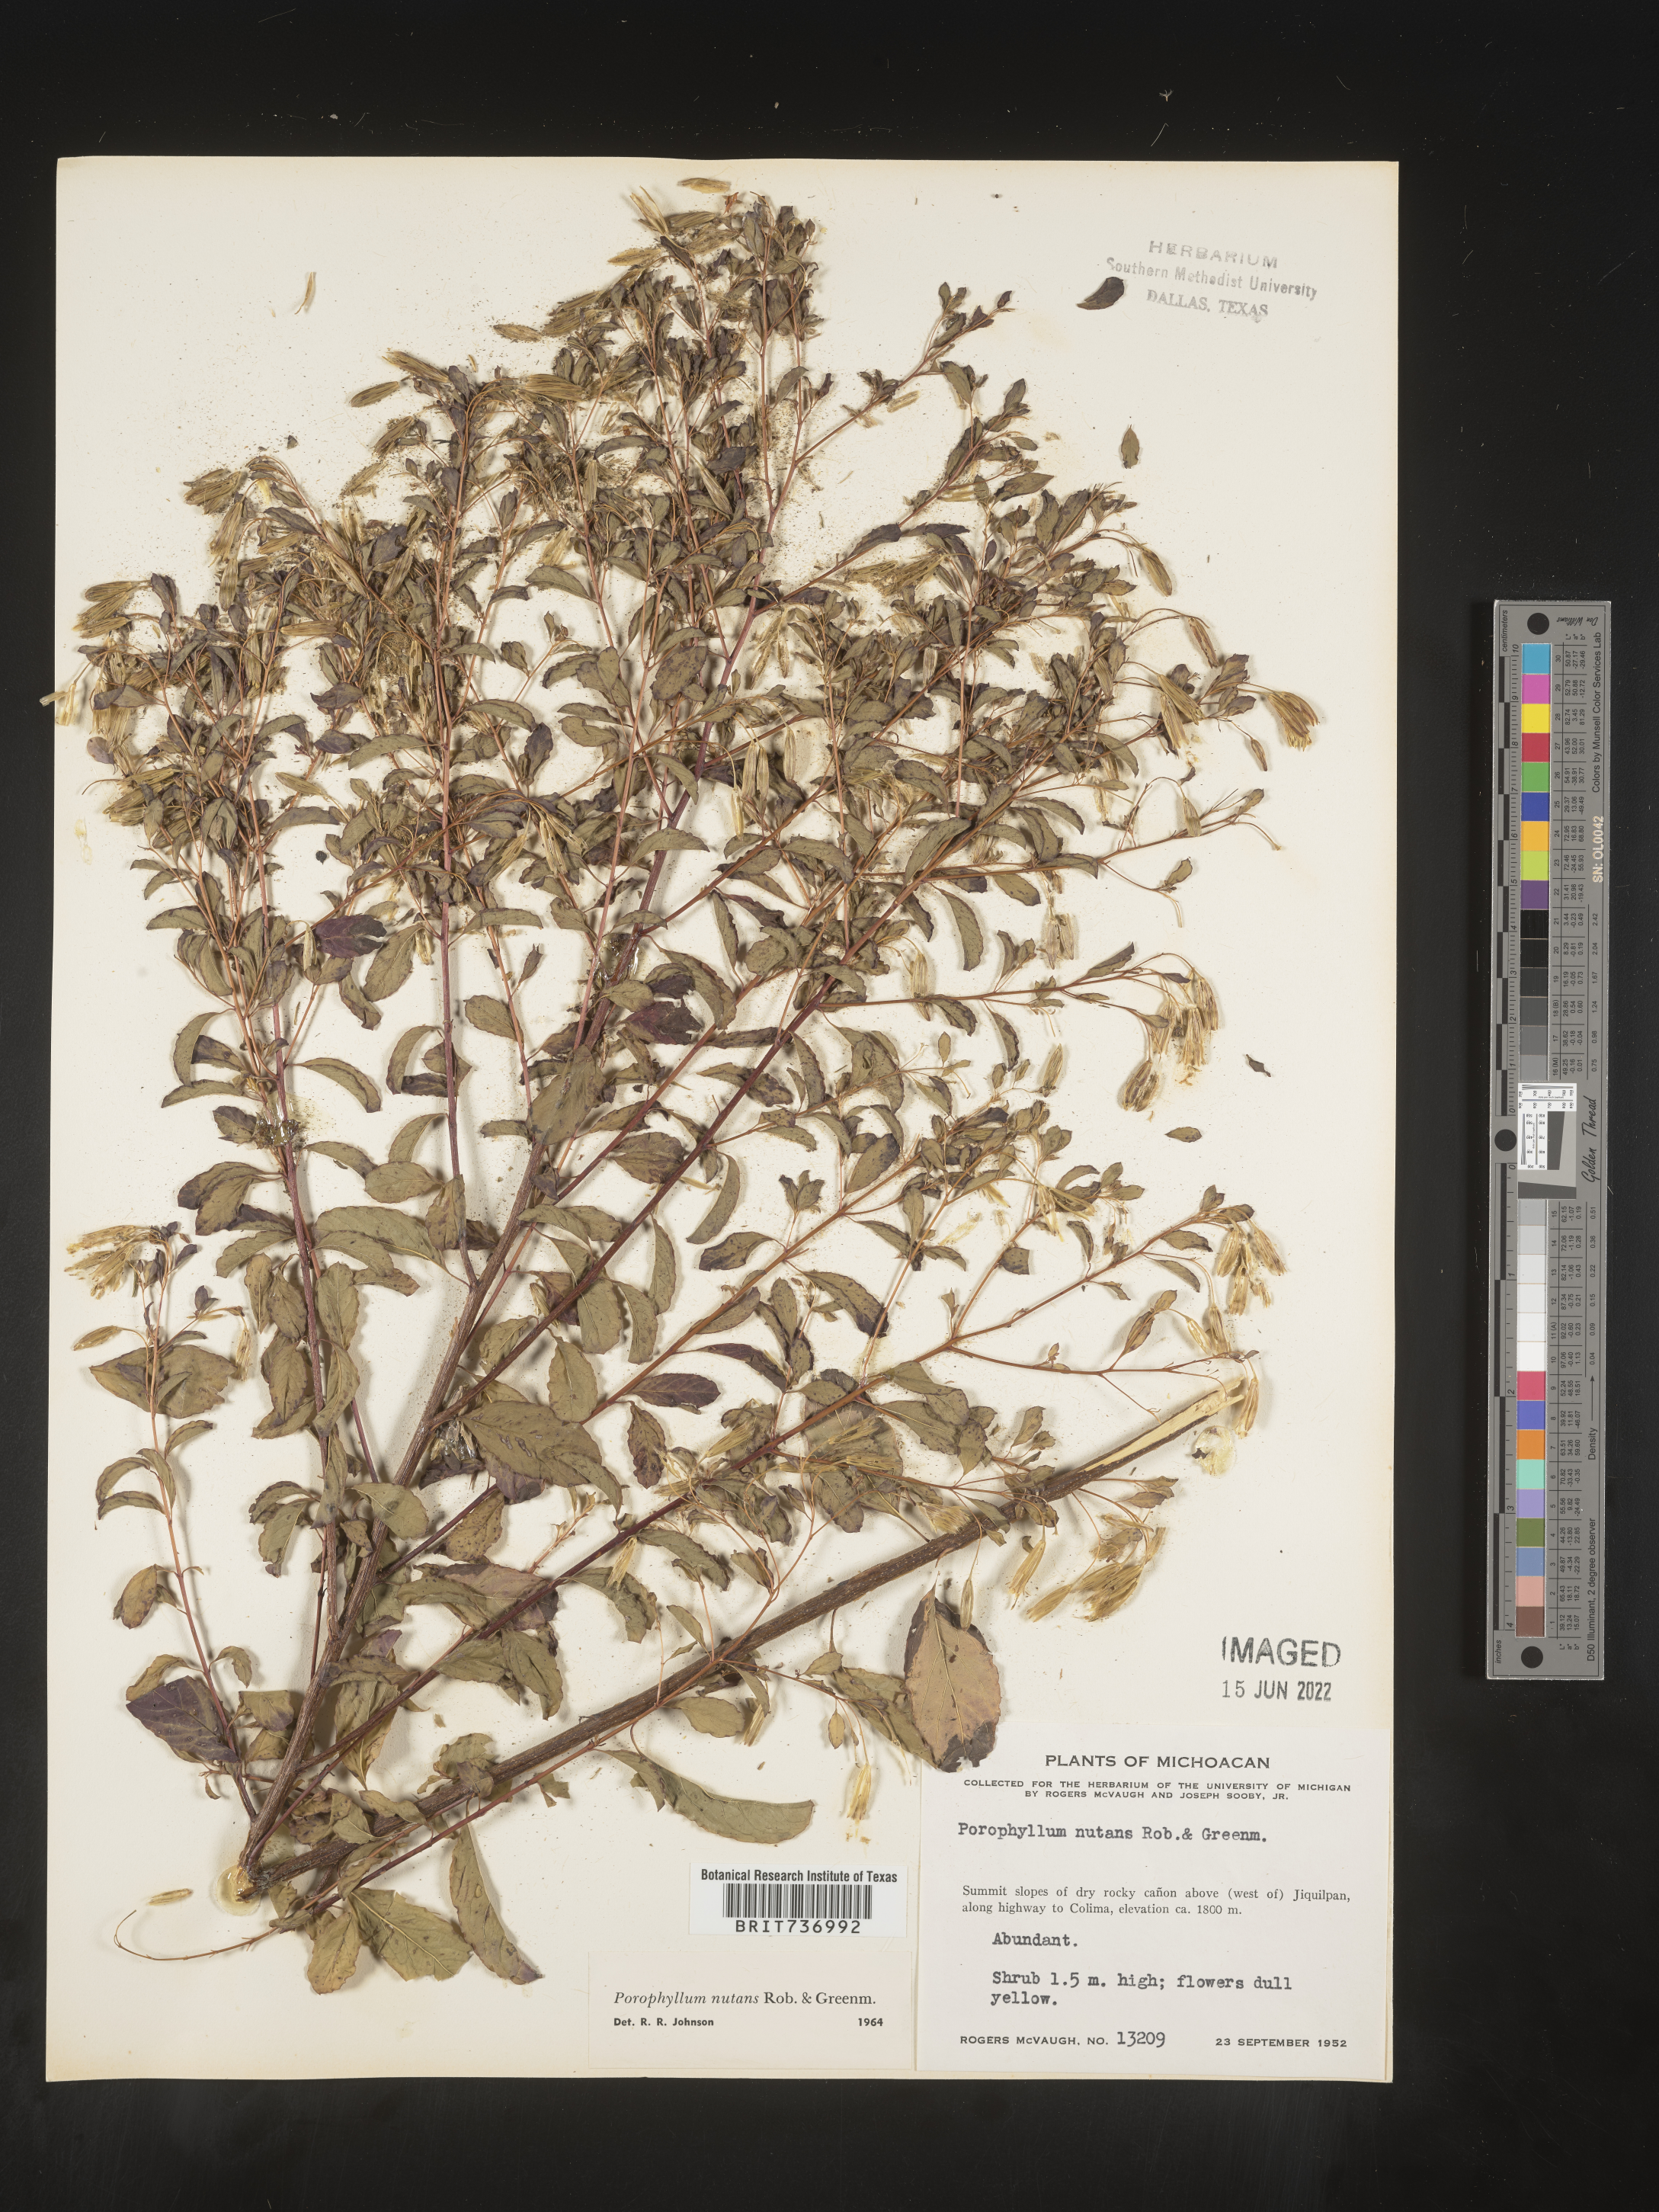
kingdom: Plantae
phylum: Tracheophyta
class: Magnoliopsida
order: Asterales
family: Asteraceae
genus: Porophyllum
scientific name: Porophyllum
